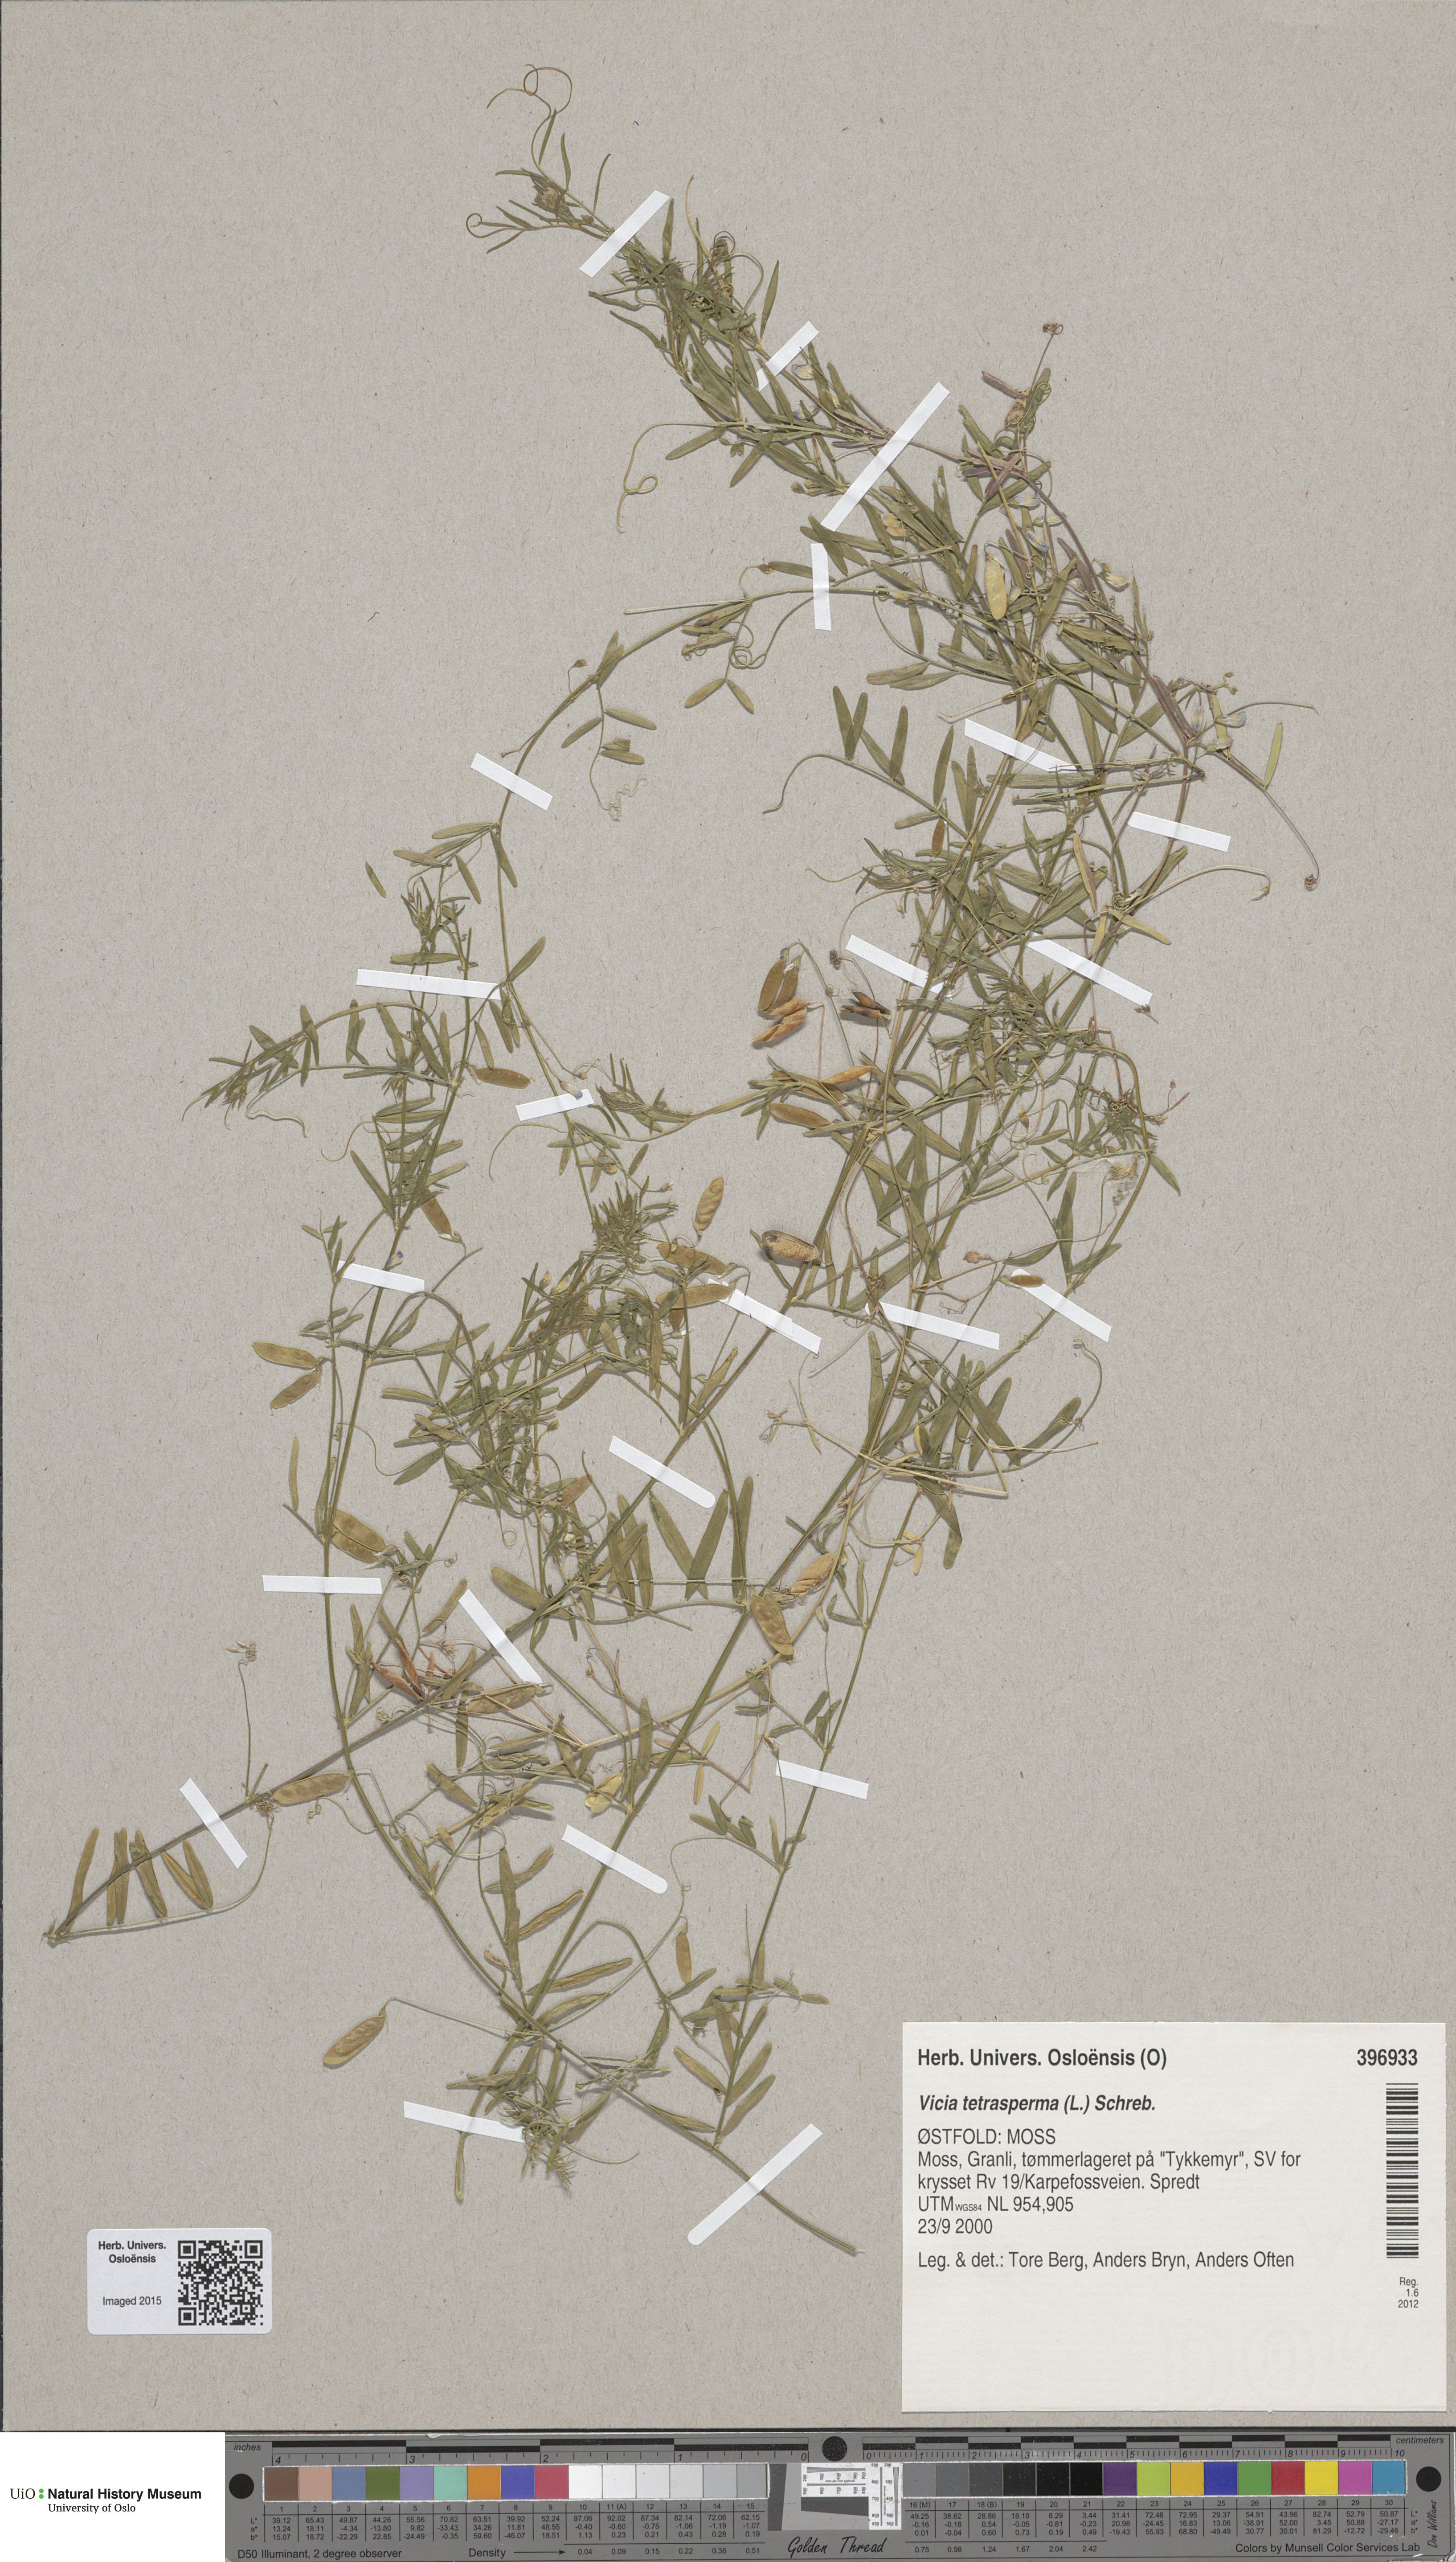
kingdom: Plantae
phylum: Tracheophyta
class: Magnoliopsida
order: Fabales
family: Fabaceae
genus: Vicia
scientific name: Vicia tetrasperma
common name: Smooth tare
